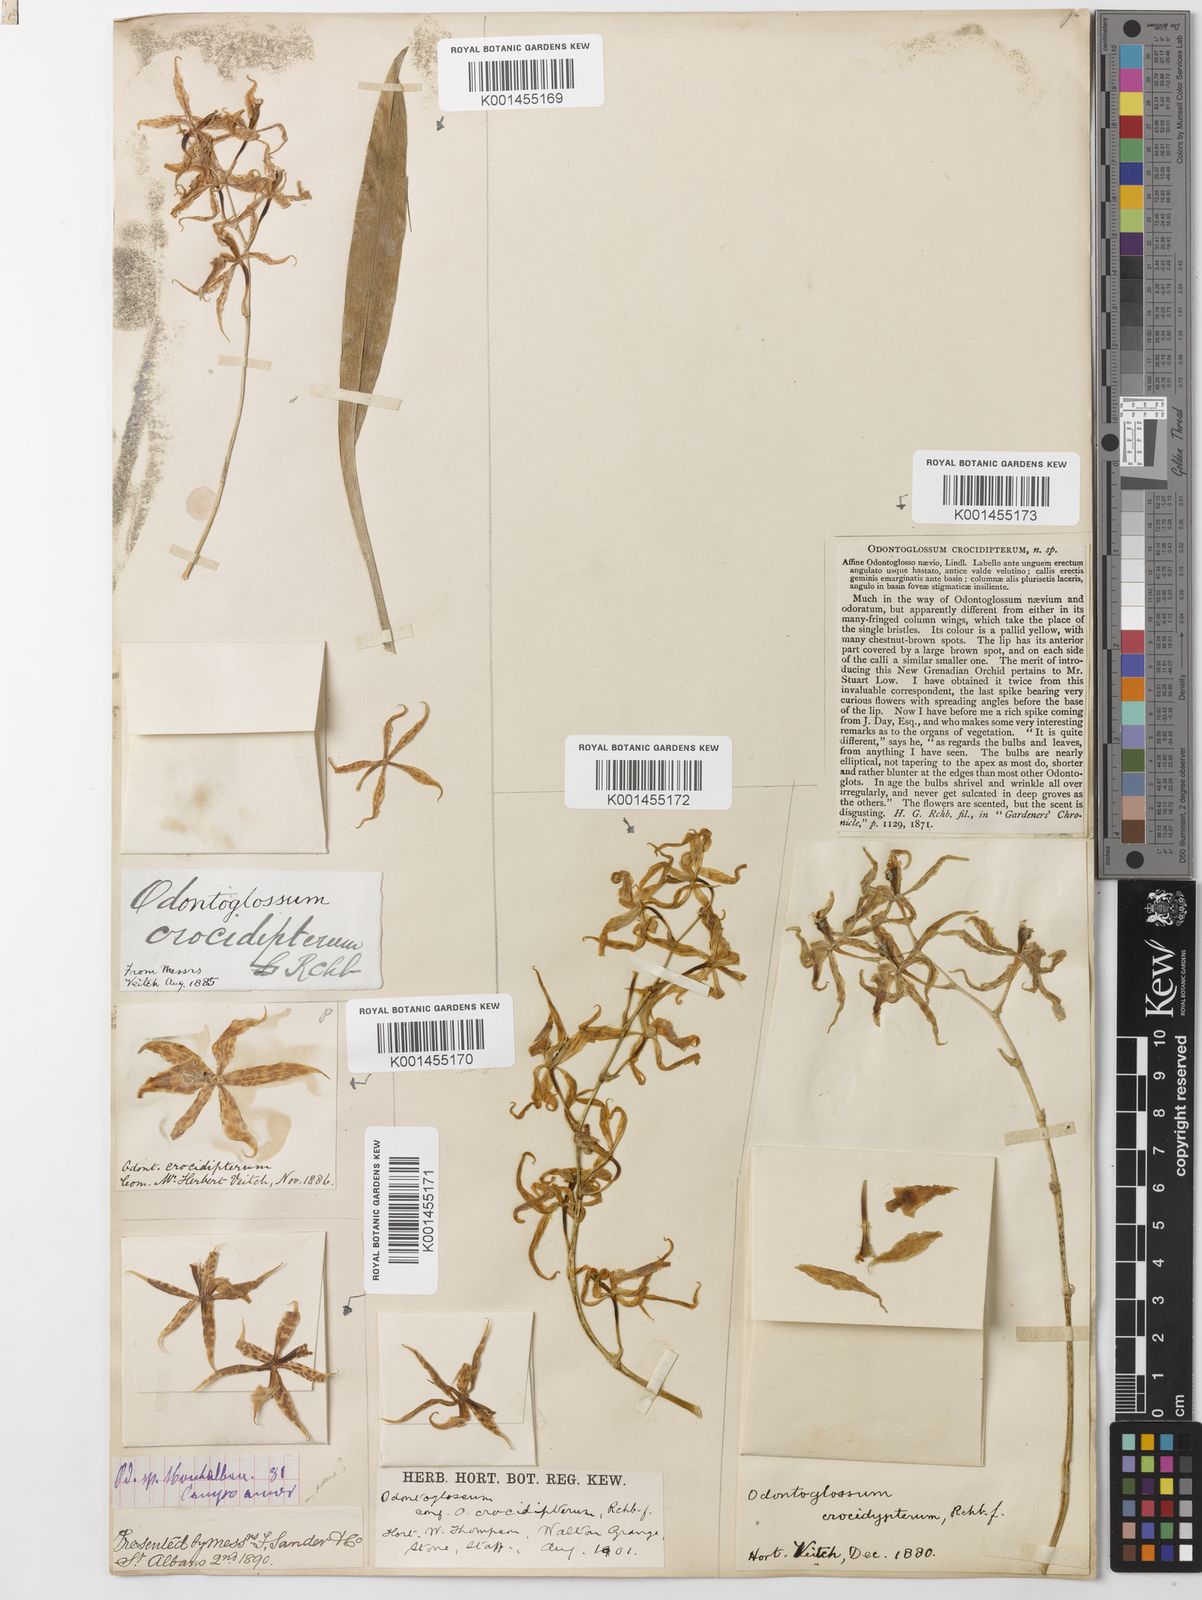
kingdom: Plantae
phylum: Tracheophyta
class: Liliopsida
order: Asparagales
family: Orchidaceae
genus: Oncidium
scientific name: Oncidium crocidipterum
